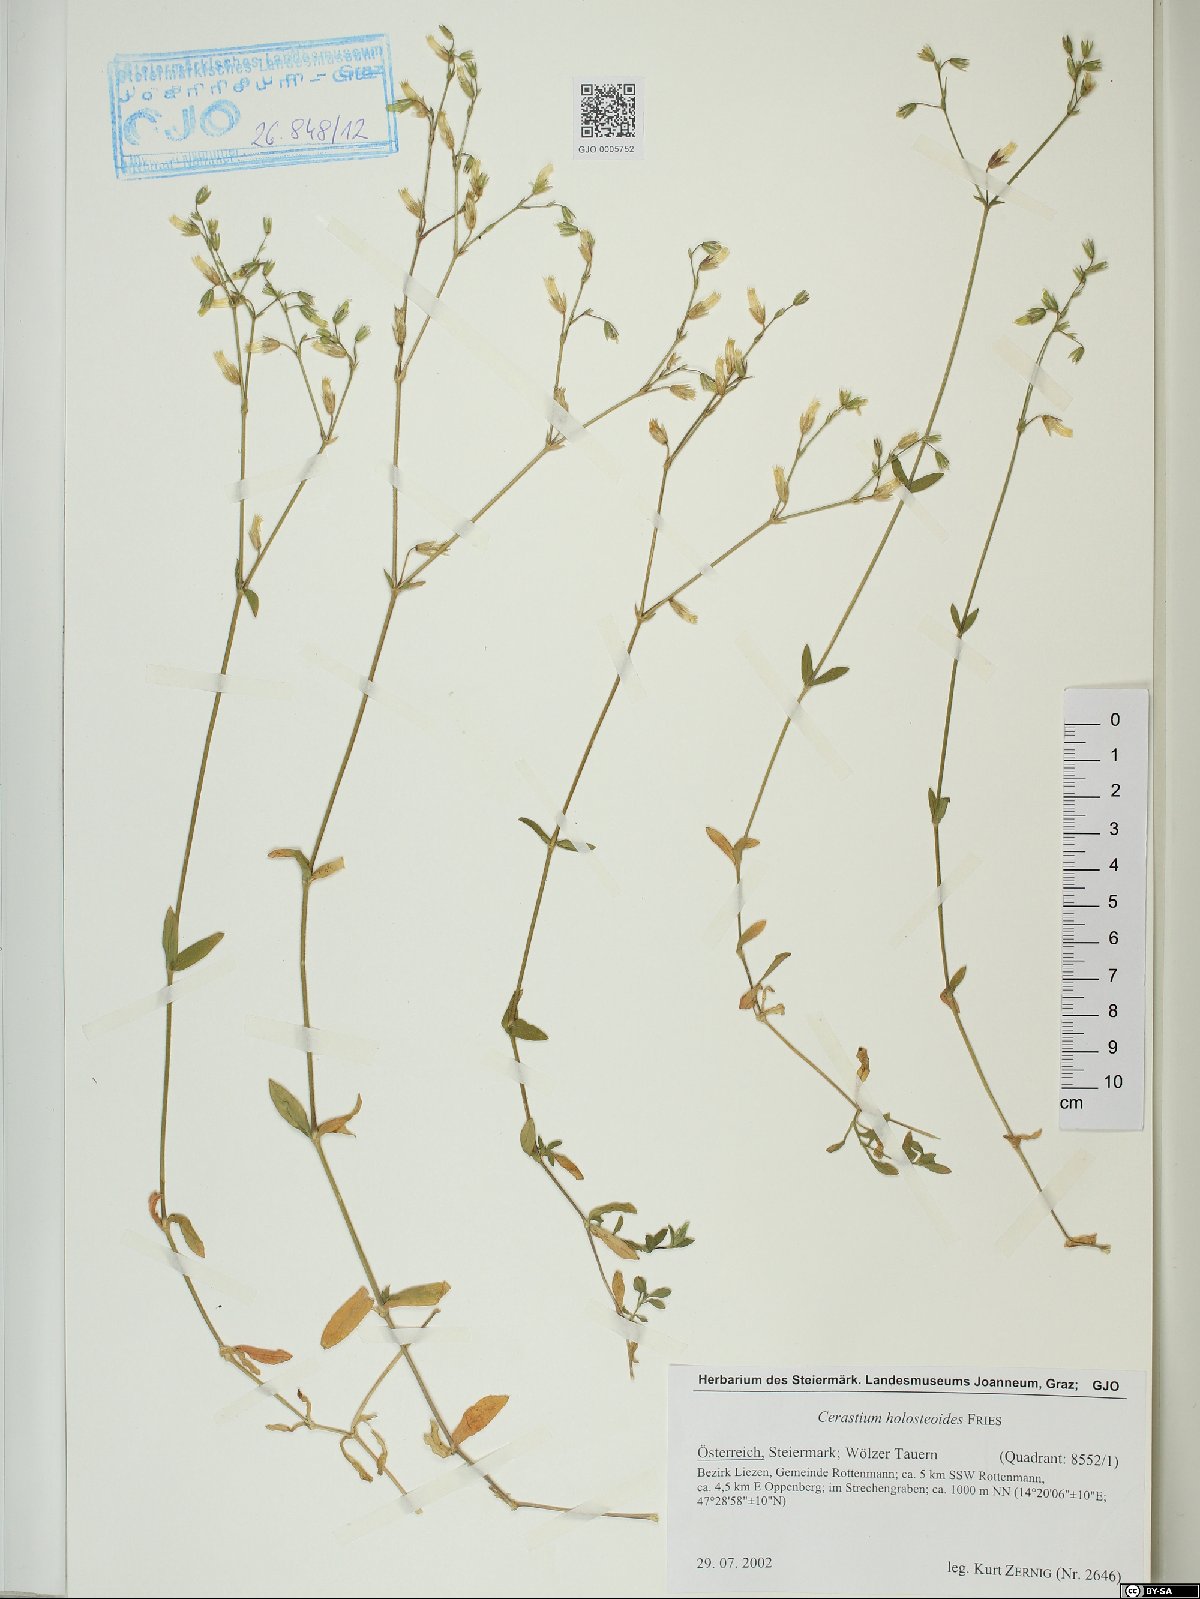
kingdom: Plantae
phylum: Tracheophyta
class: Magnoliopsida
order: Caryophyllales
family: Caryophyllaceae
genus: Cerastium
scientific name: Cerastium holosteoides
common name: Big chickweed
